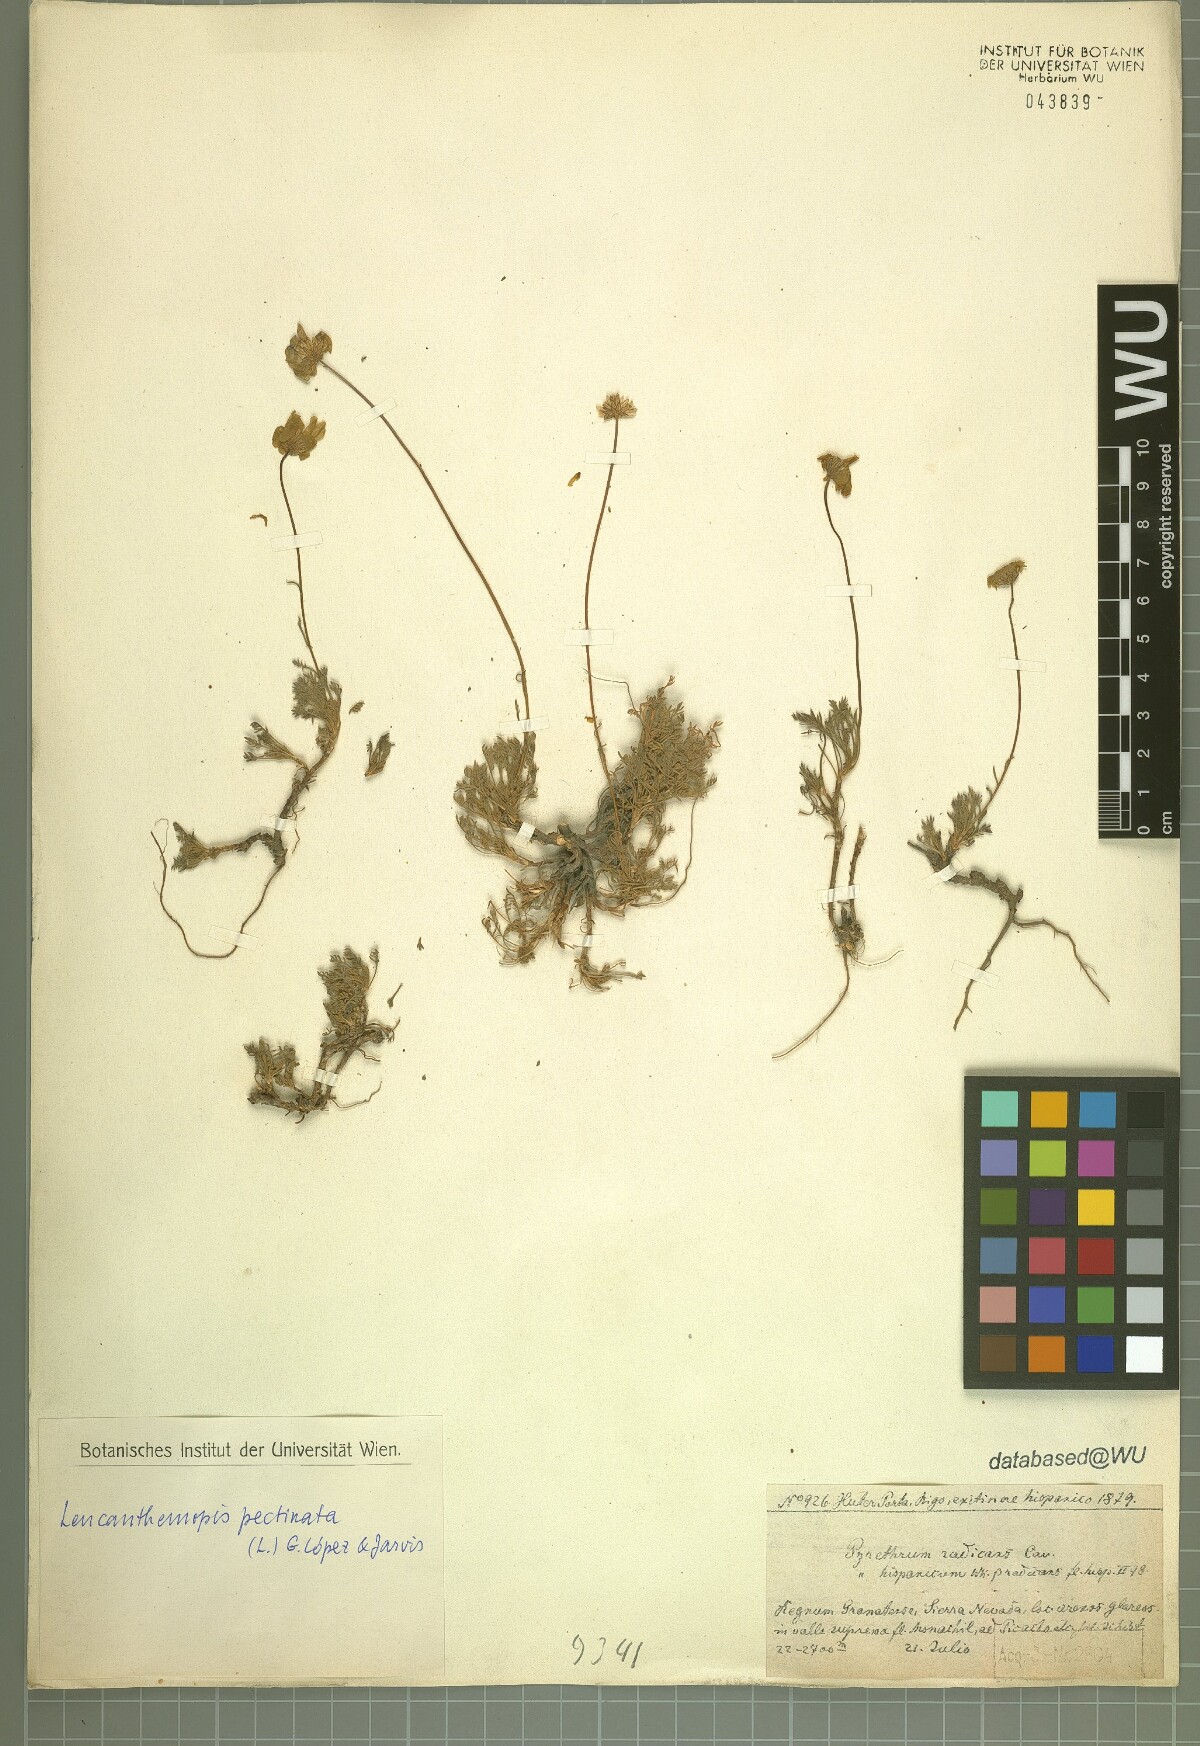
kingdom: Plantae
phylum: Tracheophyta
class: Magnoliopsida
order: Asterales
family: Asteraceae
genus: Leucanthemopsis
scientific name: Leucanthemopsis pectinata
